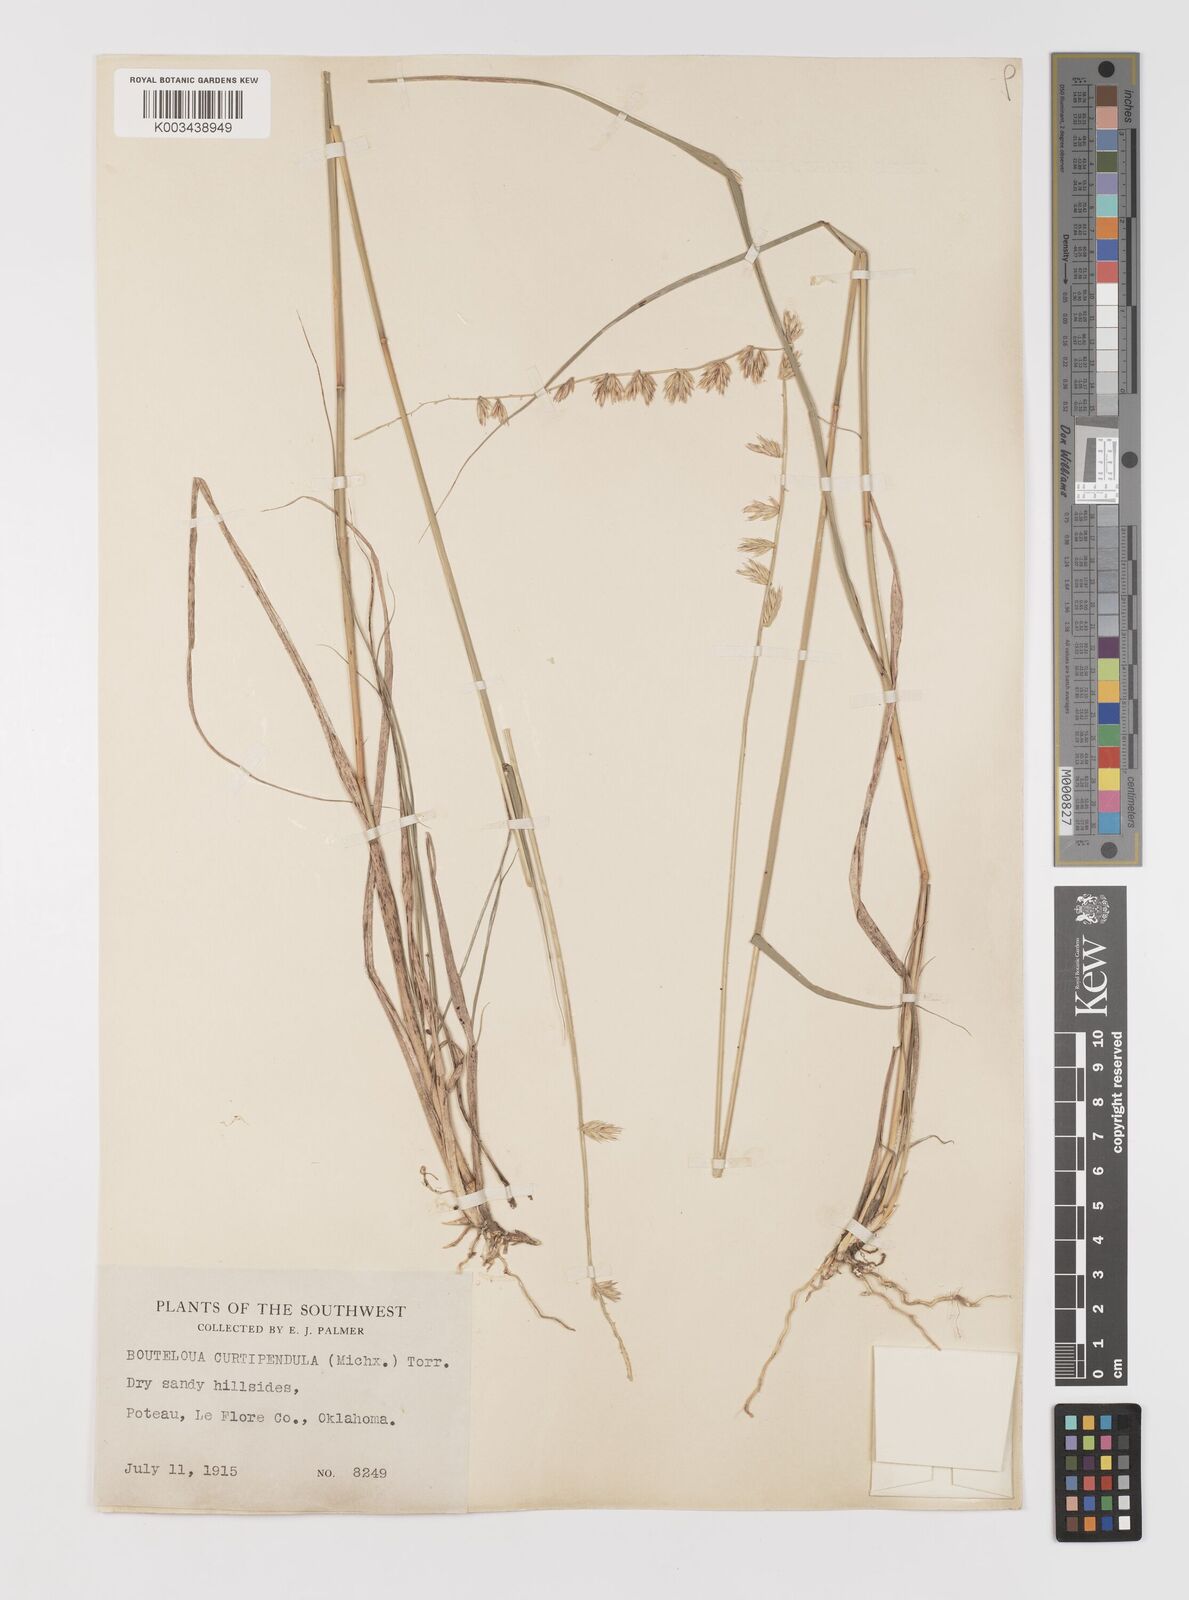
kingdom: Plantae
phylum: Tracheophyta
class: Liliopsida
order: Poales
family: Poaceae
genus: Bouteloua
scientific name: Bouteloua curtipendula
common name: Side-oats grama
